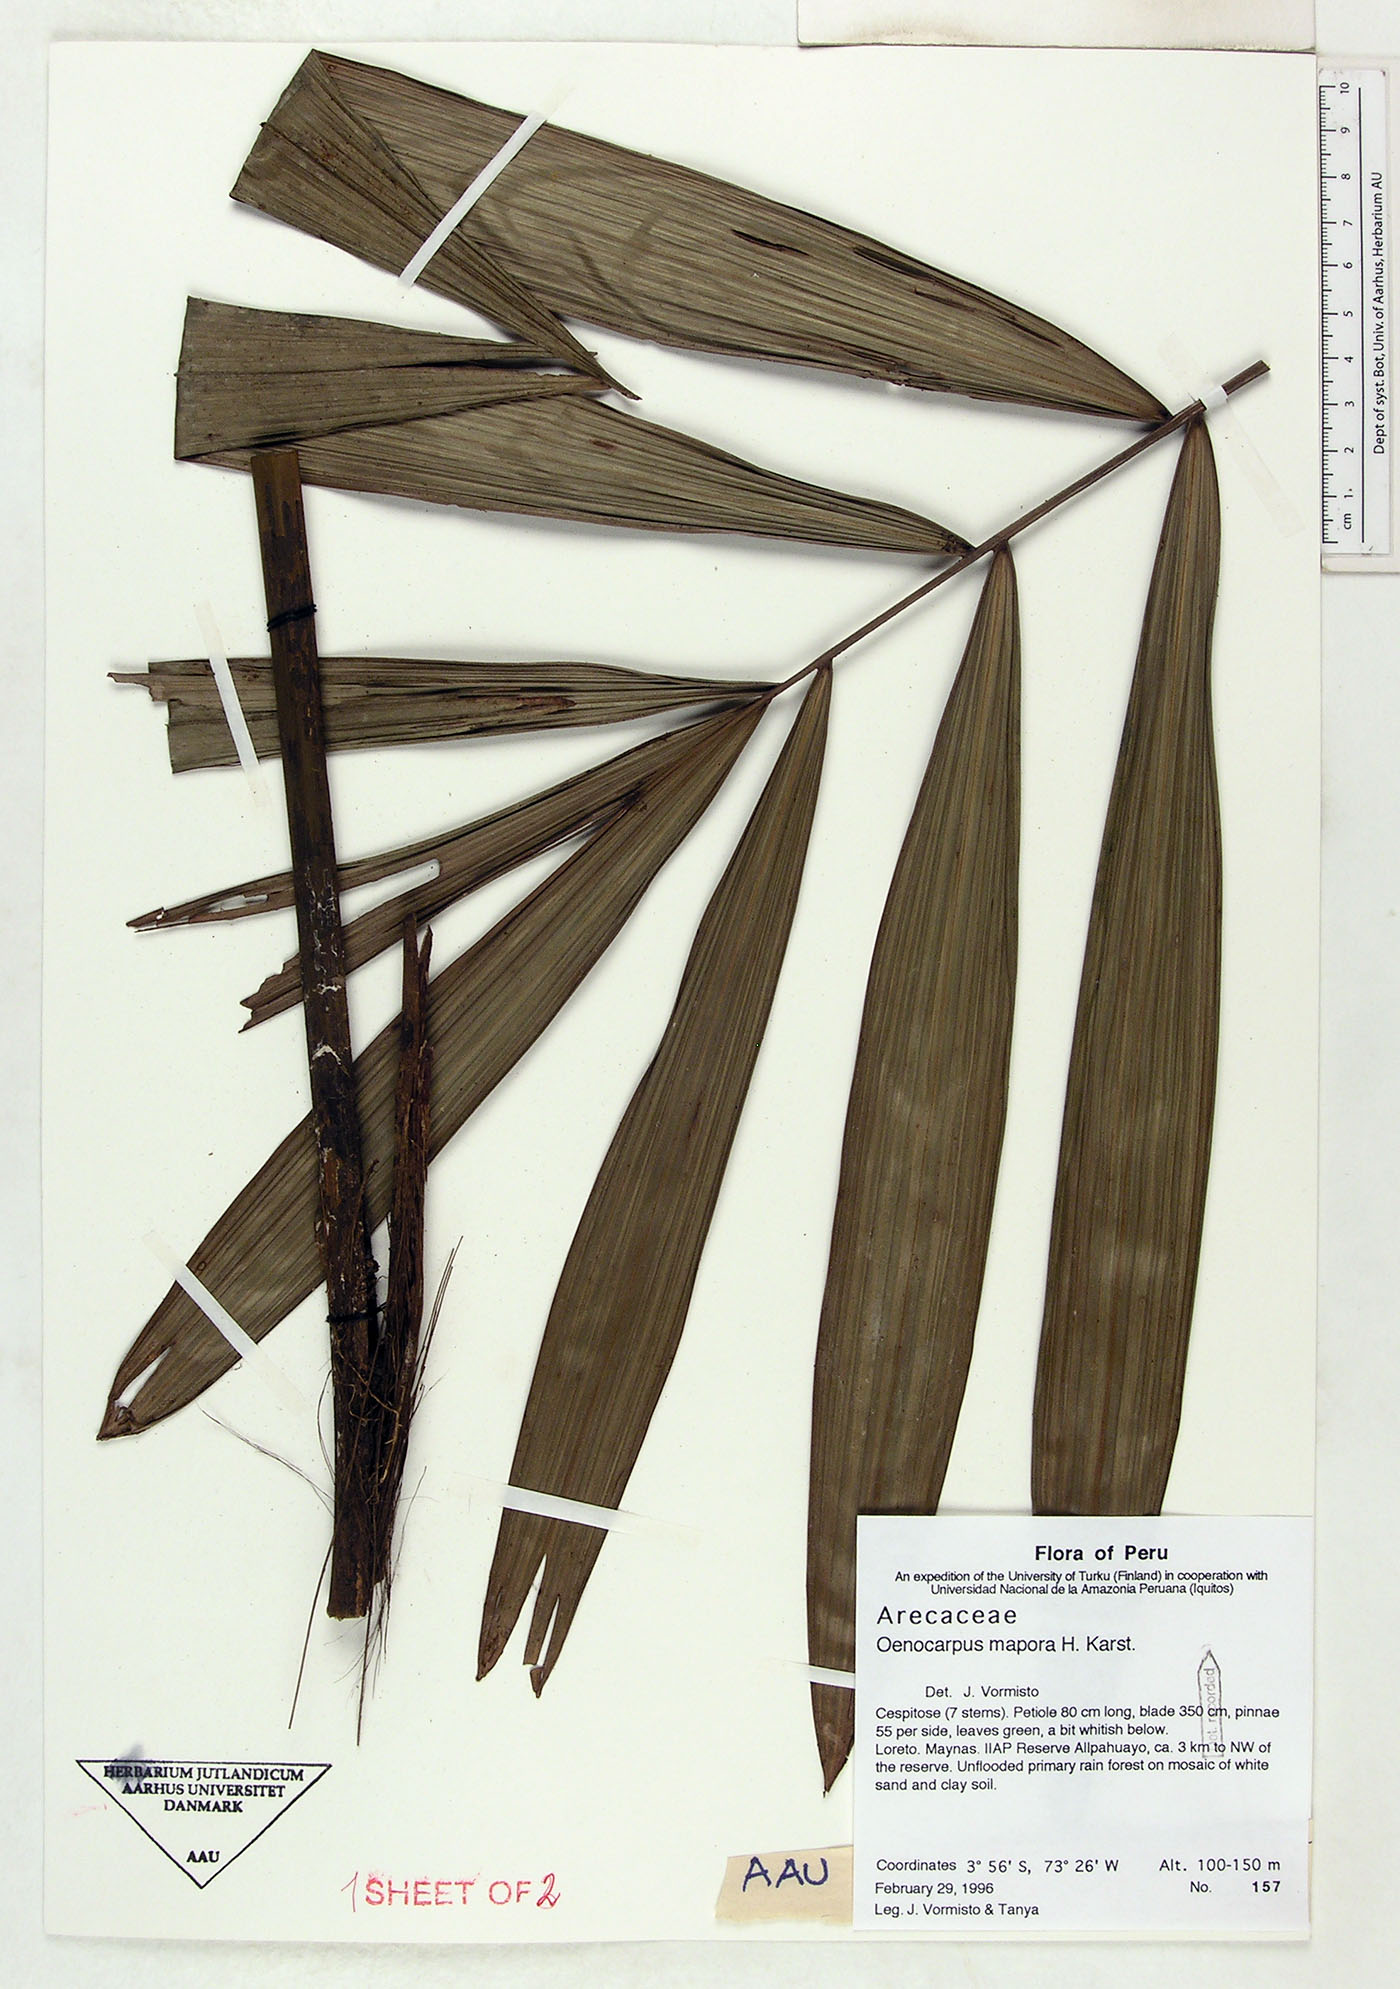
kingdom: Plantae
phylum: Tracheophyta
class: Liliopsida
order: Arecales
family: Arecaceae
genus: Oenocarpus
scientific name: Oenocarpus mapora
